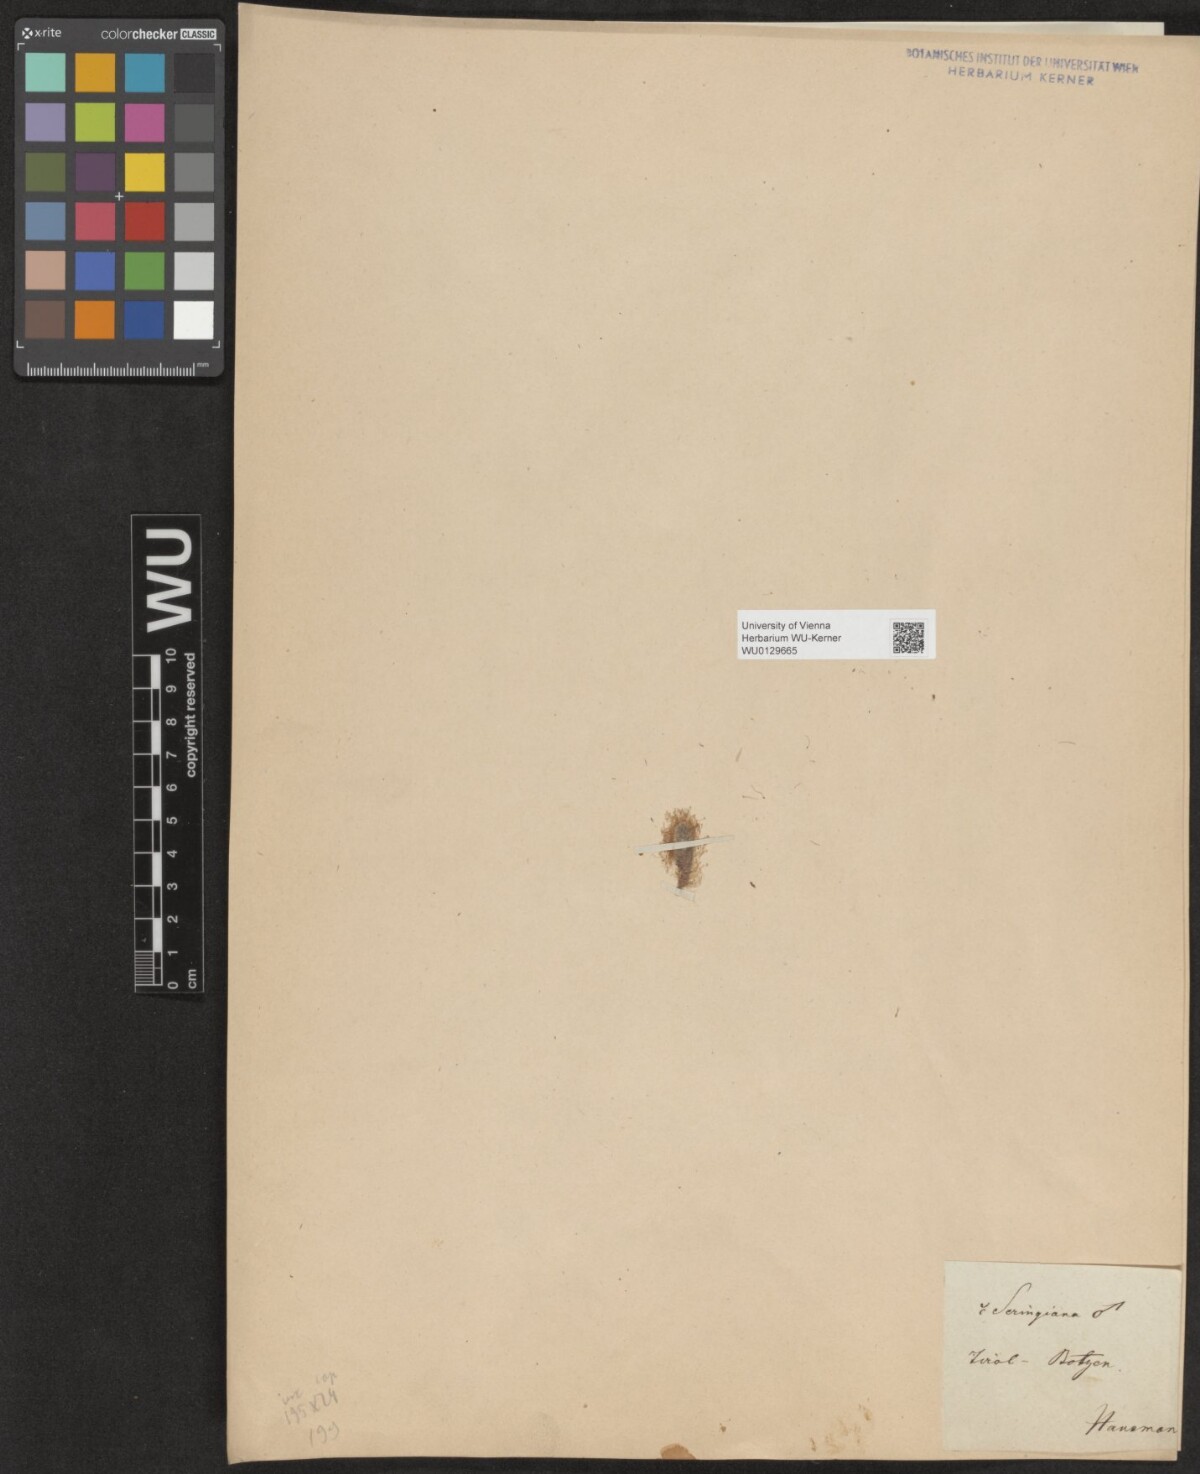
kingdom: Plantae
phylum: Tracheophyta
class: Magnoliopsida
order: Malpighiales
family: Salicaceae
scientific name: Salicaceae
